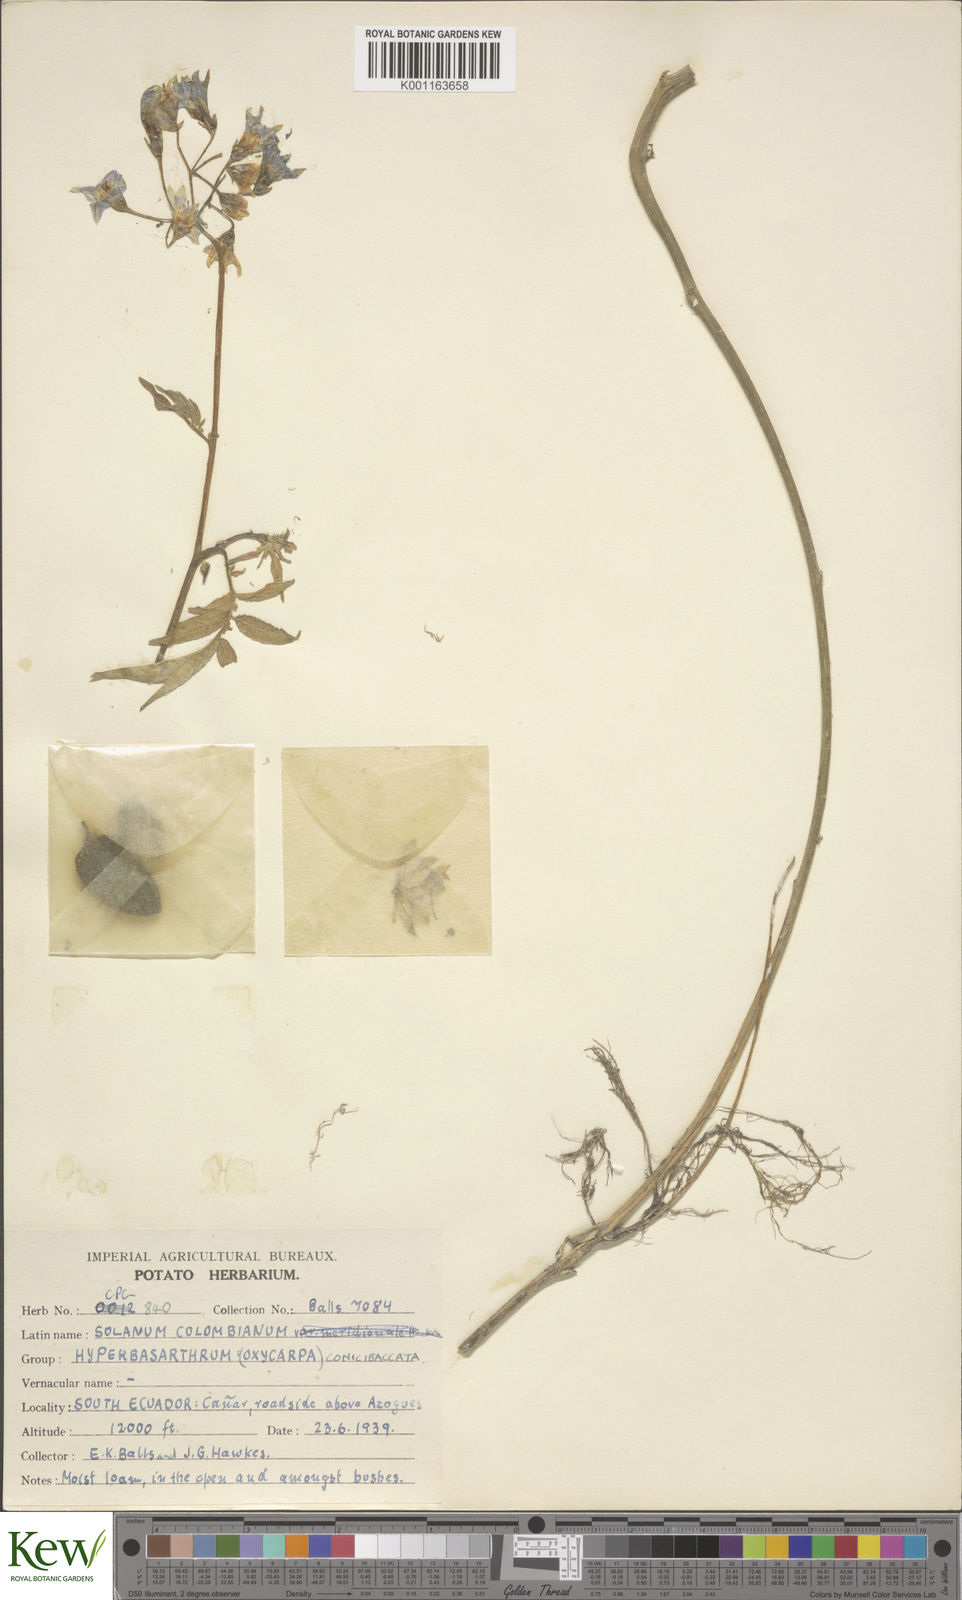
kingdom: Plantae
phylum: Tracheophyta
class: Magnoliopsida
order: Solanales
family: Solanaceae
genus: Solanum
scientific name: Solanum colombianum
